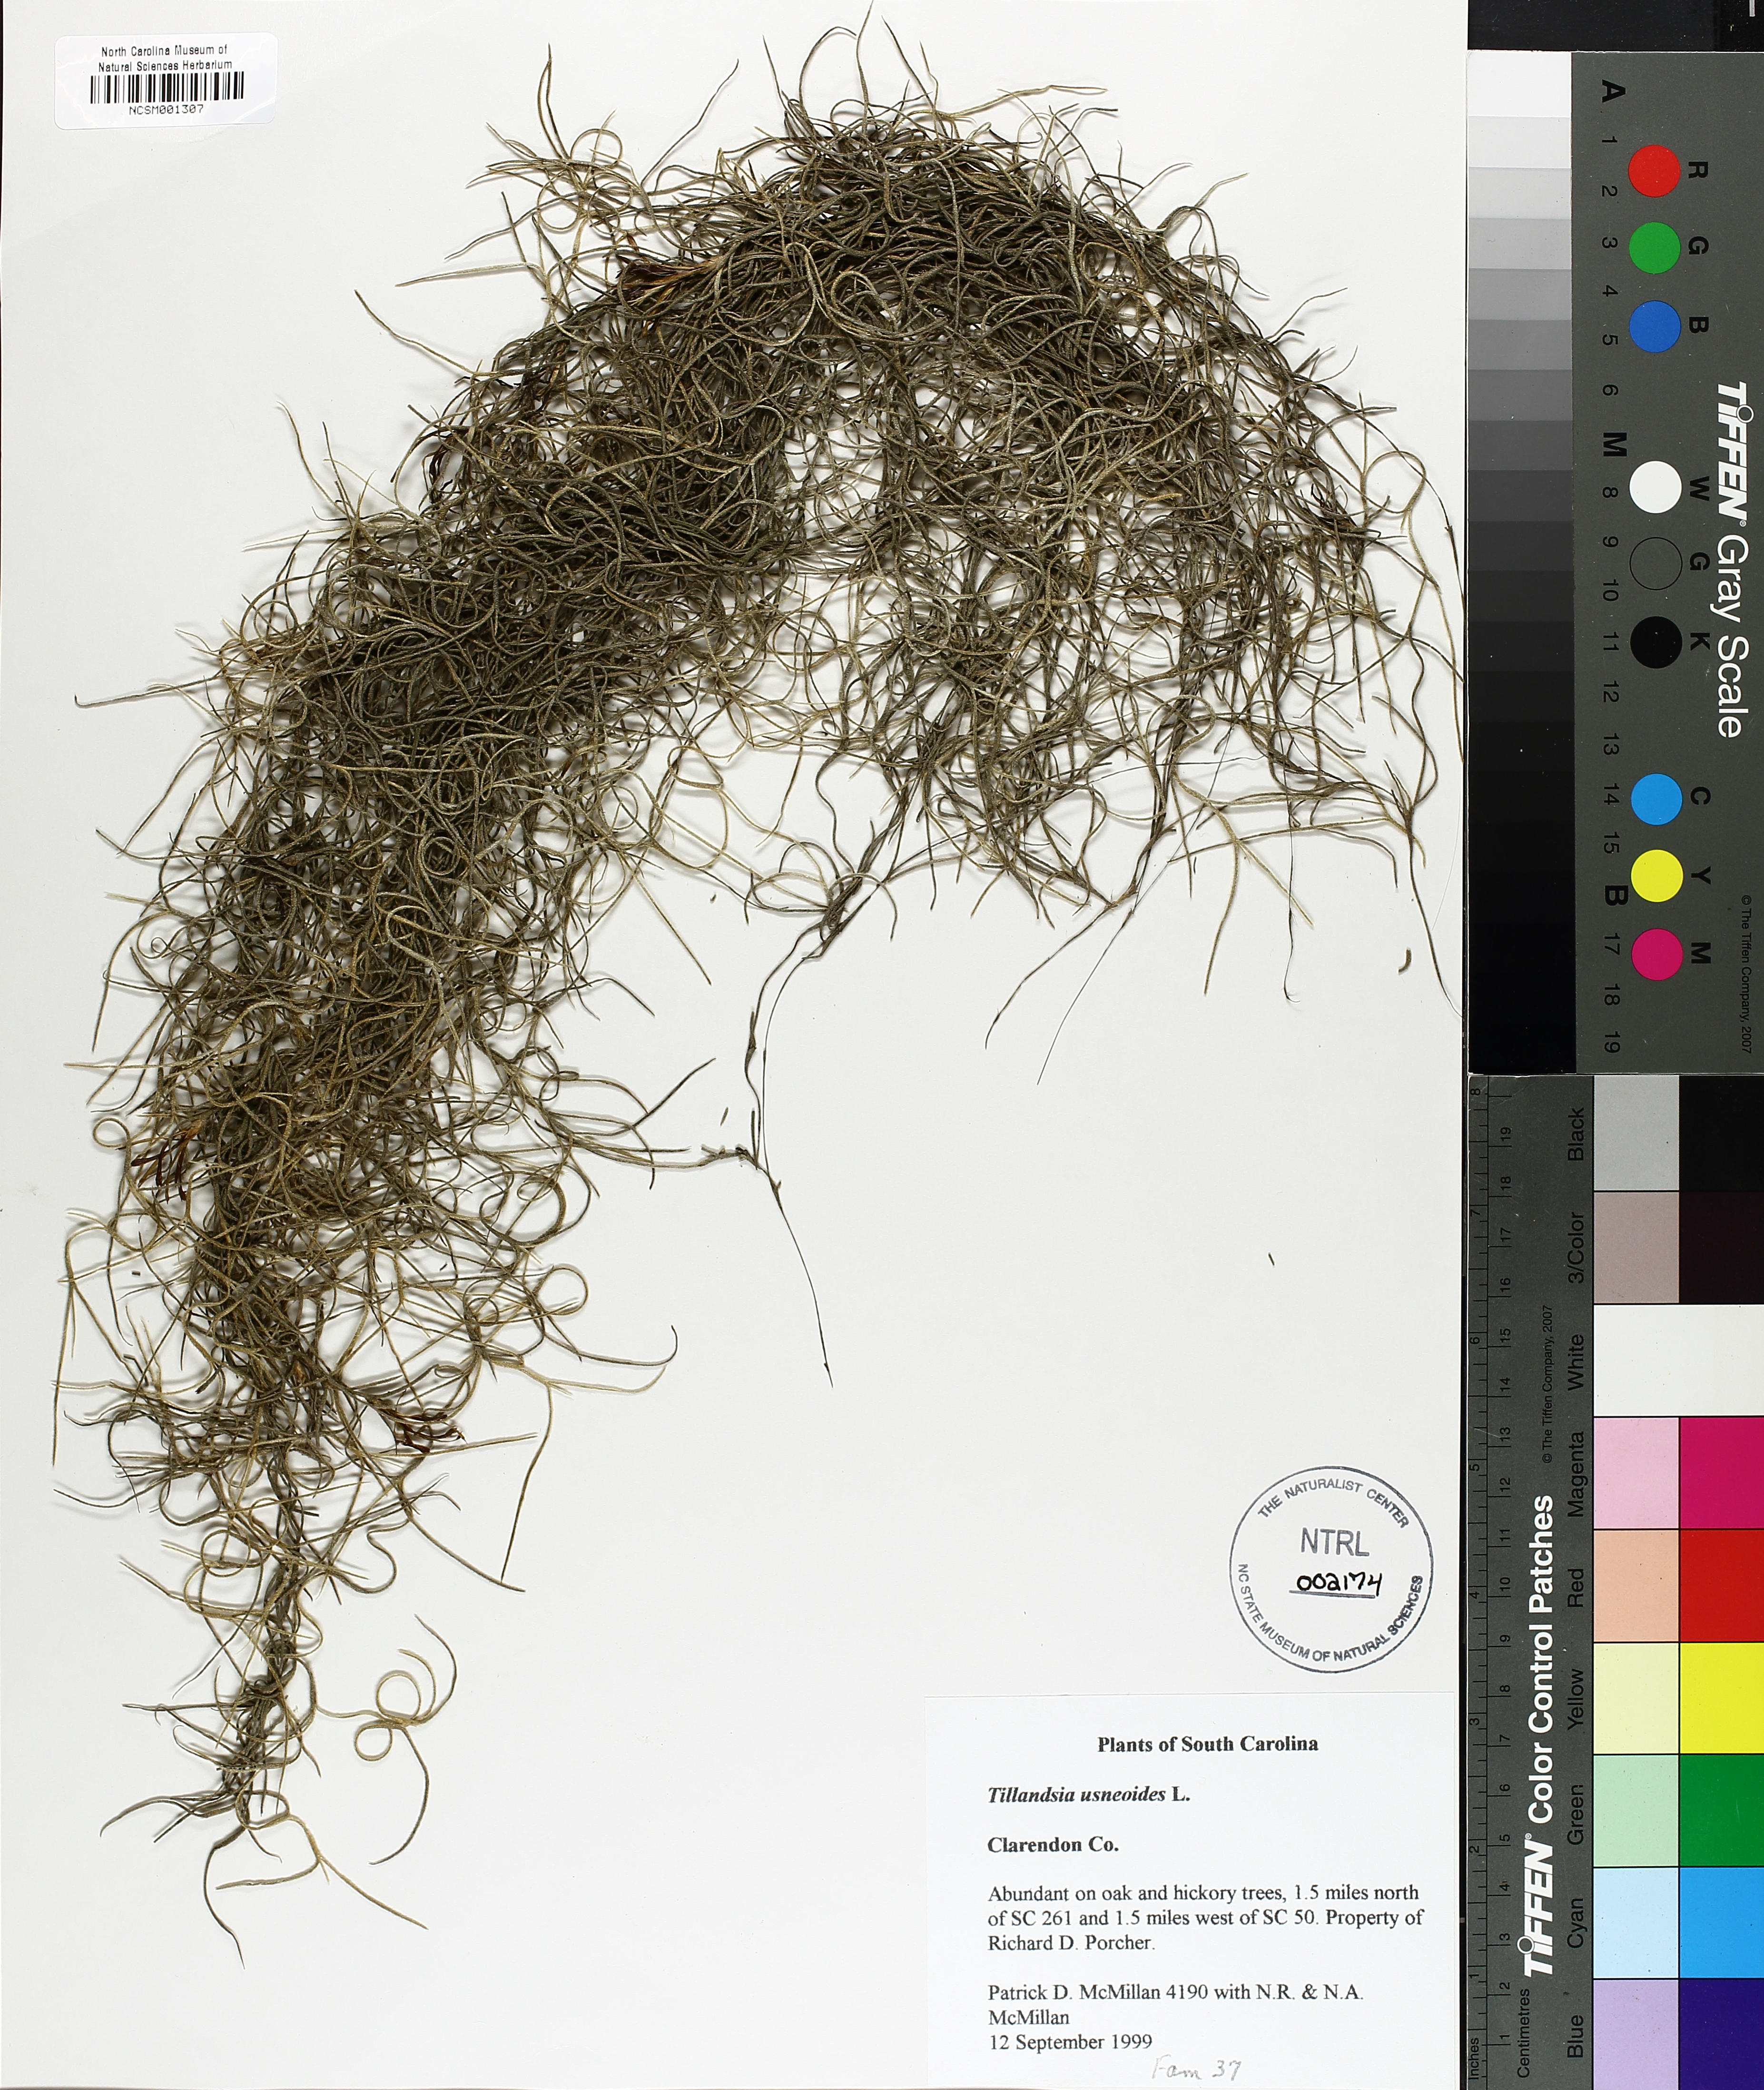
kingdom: Plantae
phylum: Tracheophyta
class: Liliopsida
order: Poales
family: Bromeliaceae
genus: Tillandsia
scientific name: Tillandsia usneoides
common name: Spanish moss
